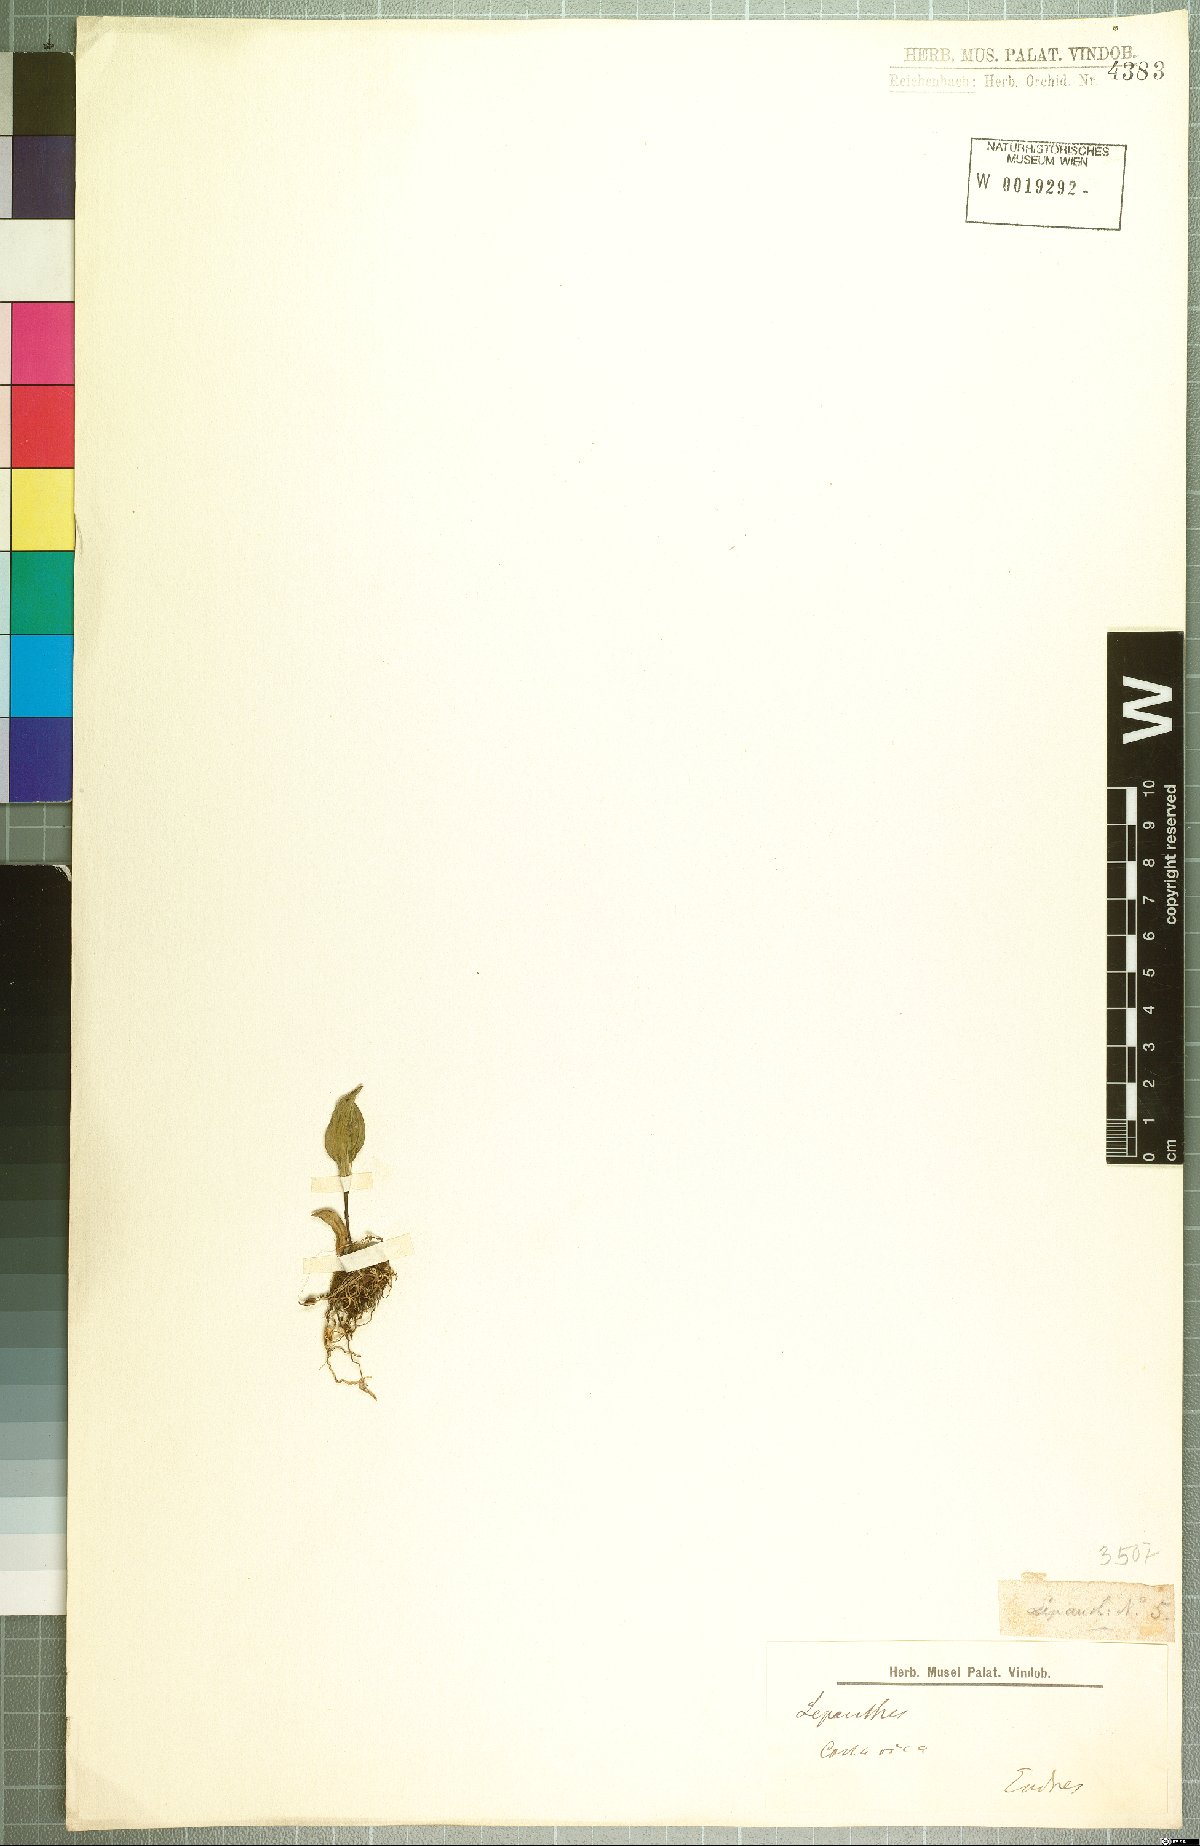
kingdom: Plantae
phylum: Tracheophyta
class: Liliopsida
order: Asparagales
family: Orchidaceae
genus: Lepanthes
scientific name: Lepanthes
